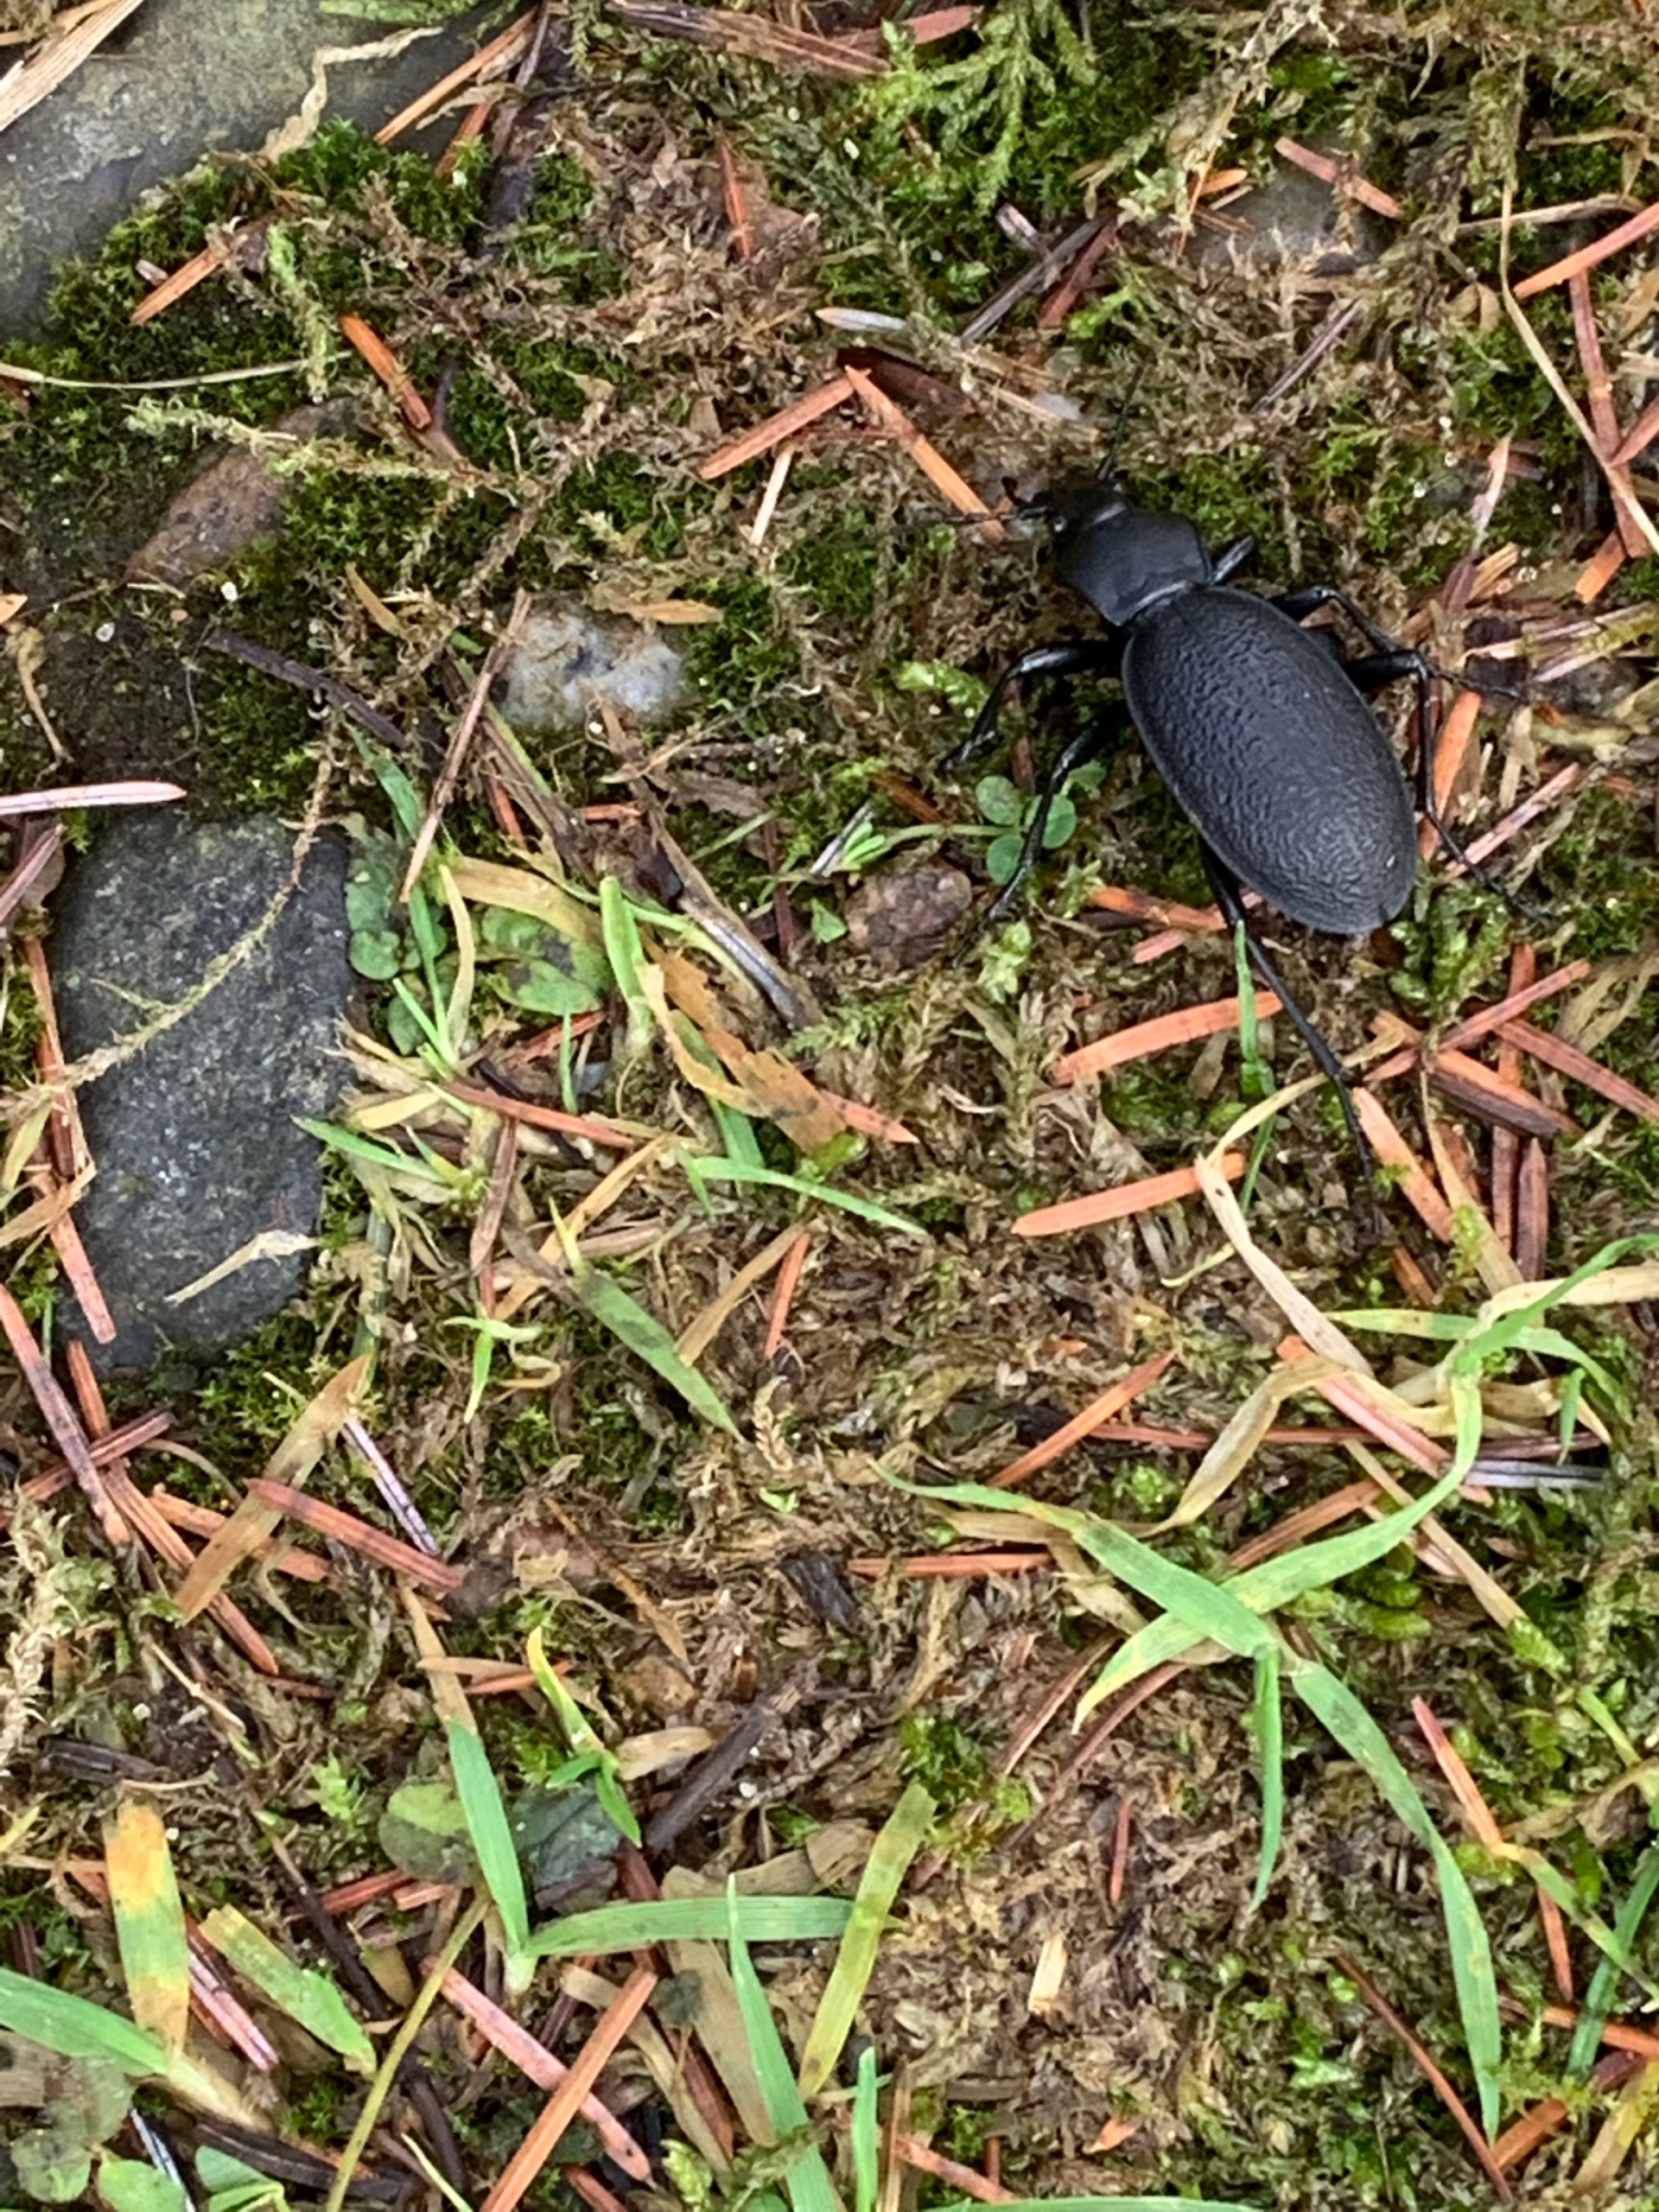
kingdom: Animalia
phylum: Arthropoda
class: Insecta
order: Coleoptera
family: Carabidae
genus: Carabus
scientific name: Carabus coriaceus
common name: Læderløber
